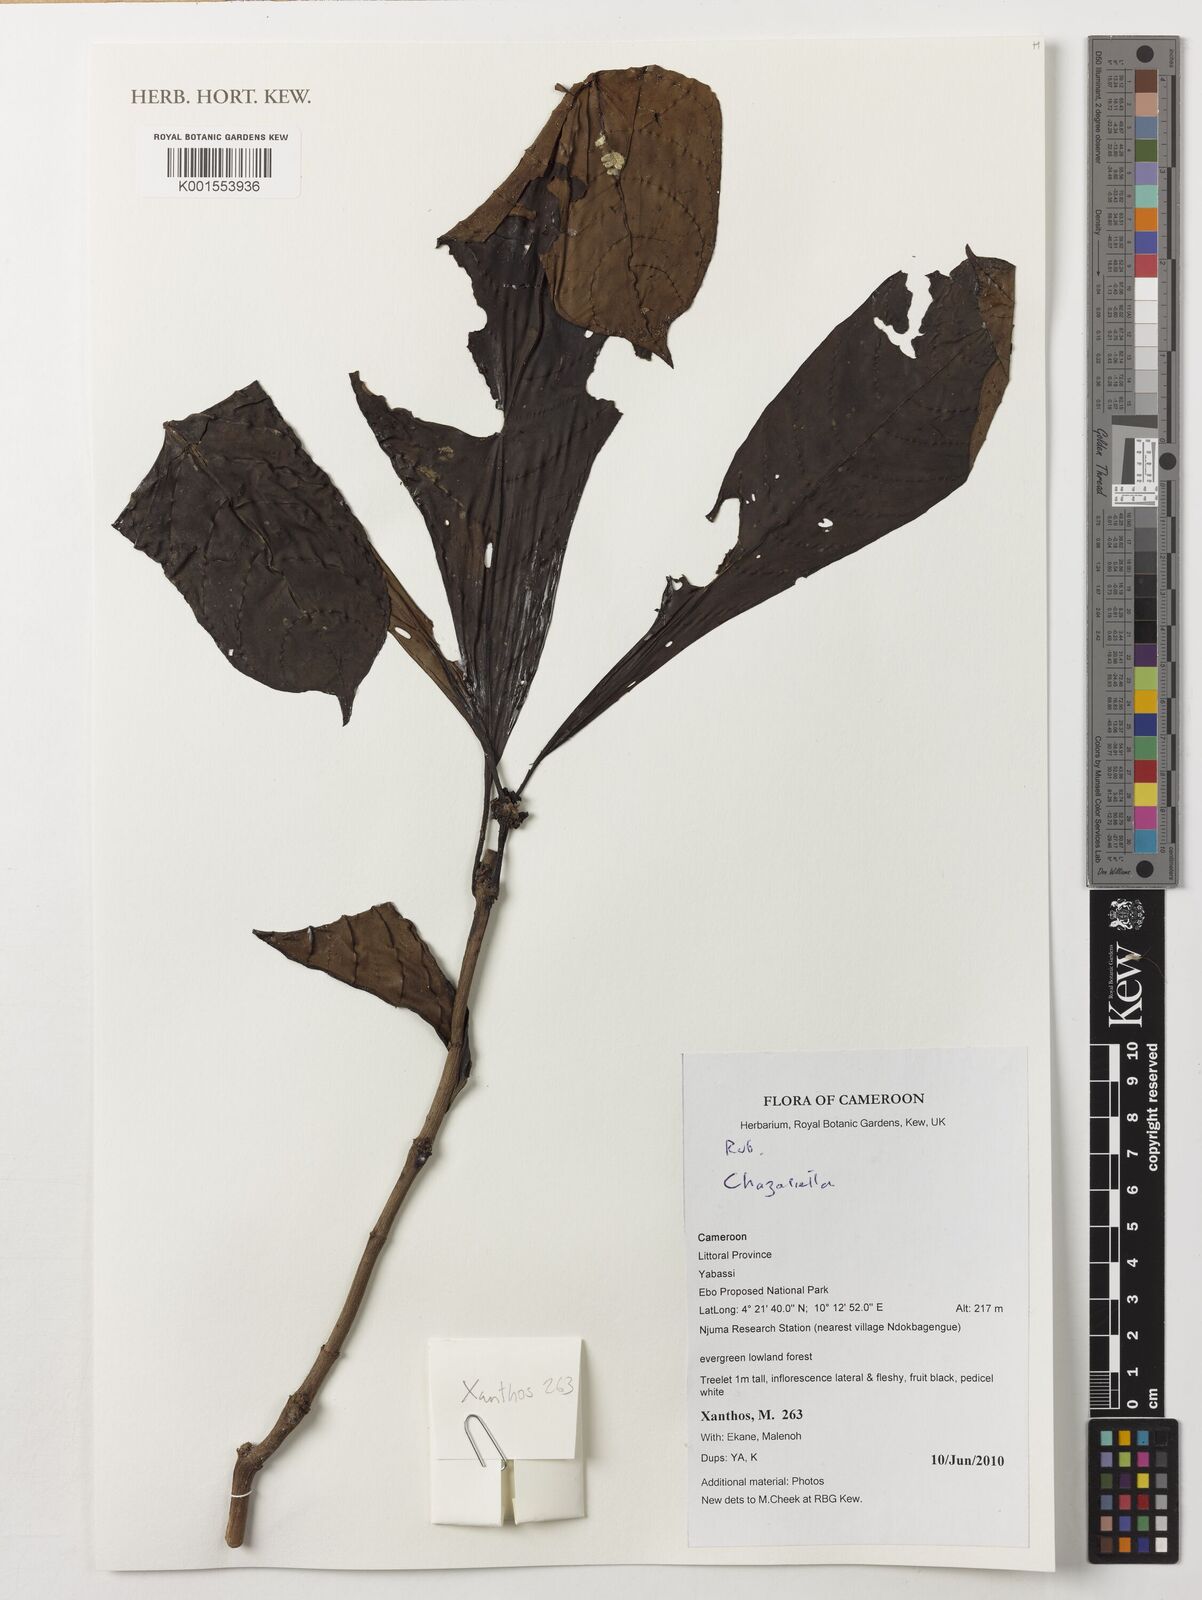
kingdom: Plantae
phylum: Tracheophyta
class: Magnoliopsida
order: Gentianales
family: Rubiaceae
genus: Eumachia
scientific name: Eumachia
